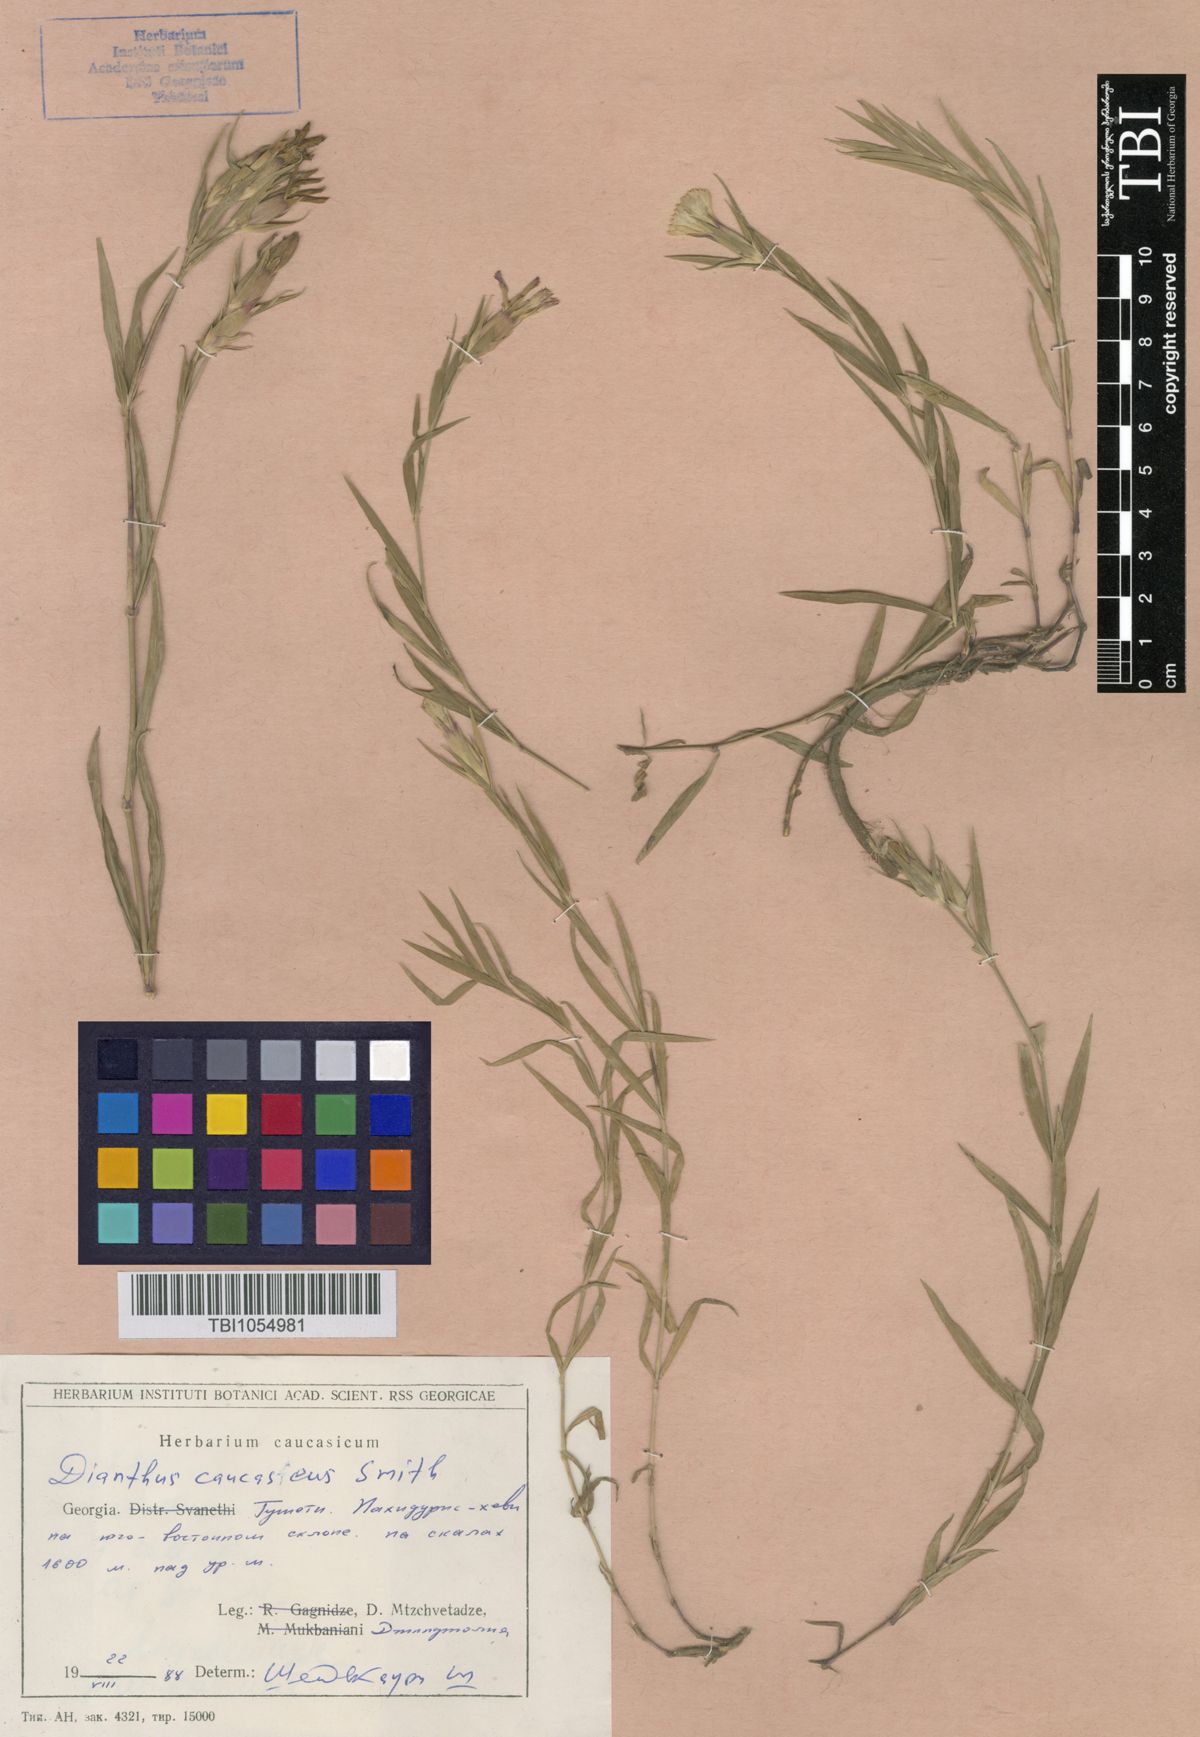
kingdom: Plantae
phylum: Tracheophyta
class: Magnoliopsida
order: Caryophyllales
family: Caryophyllaceae
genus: Dianthus
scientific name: Dianthus caucaseus
